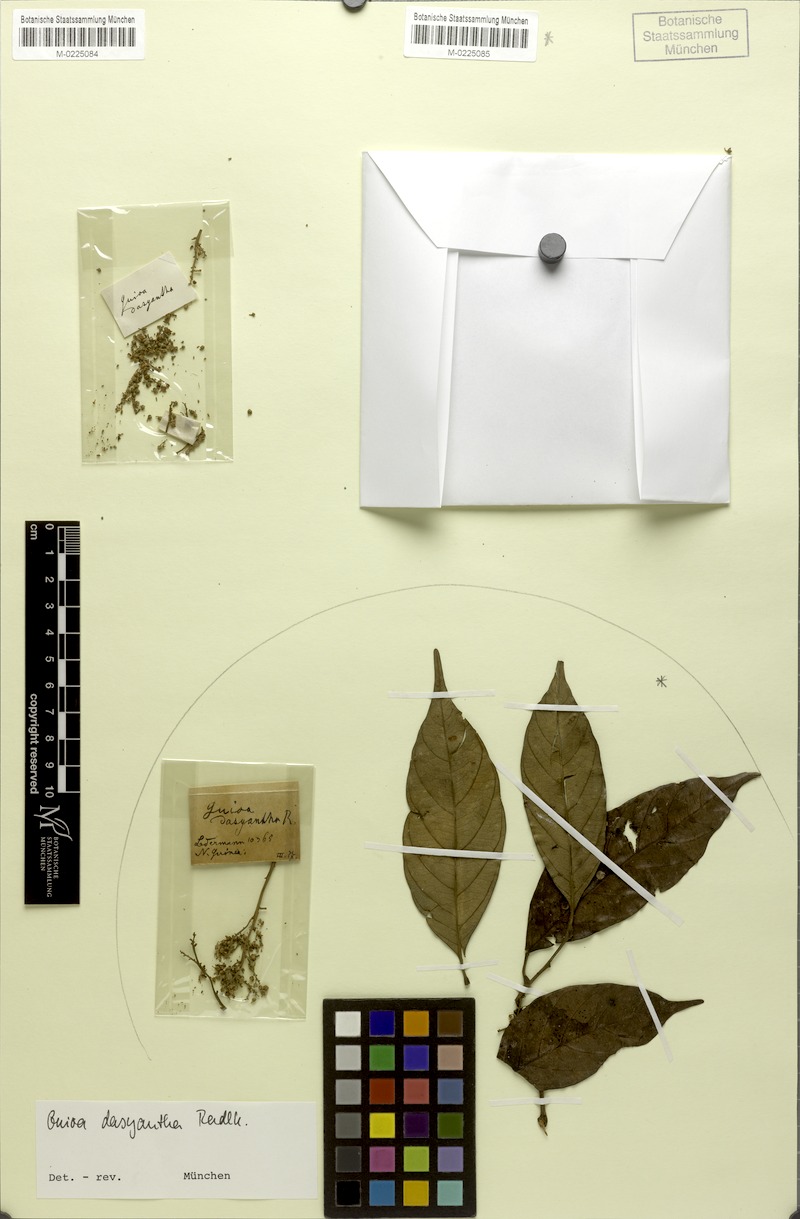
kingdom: Plantae
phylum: Tracheophyta
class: Magnoliopsida
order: Sapindales
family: Sapindaceae
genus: Jagera
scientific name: Jagera
